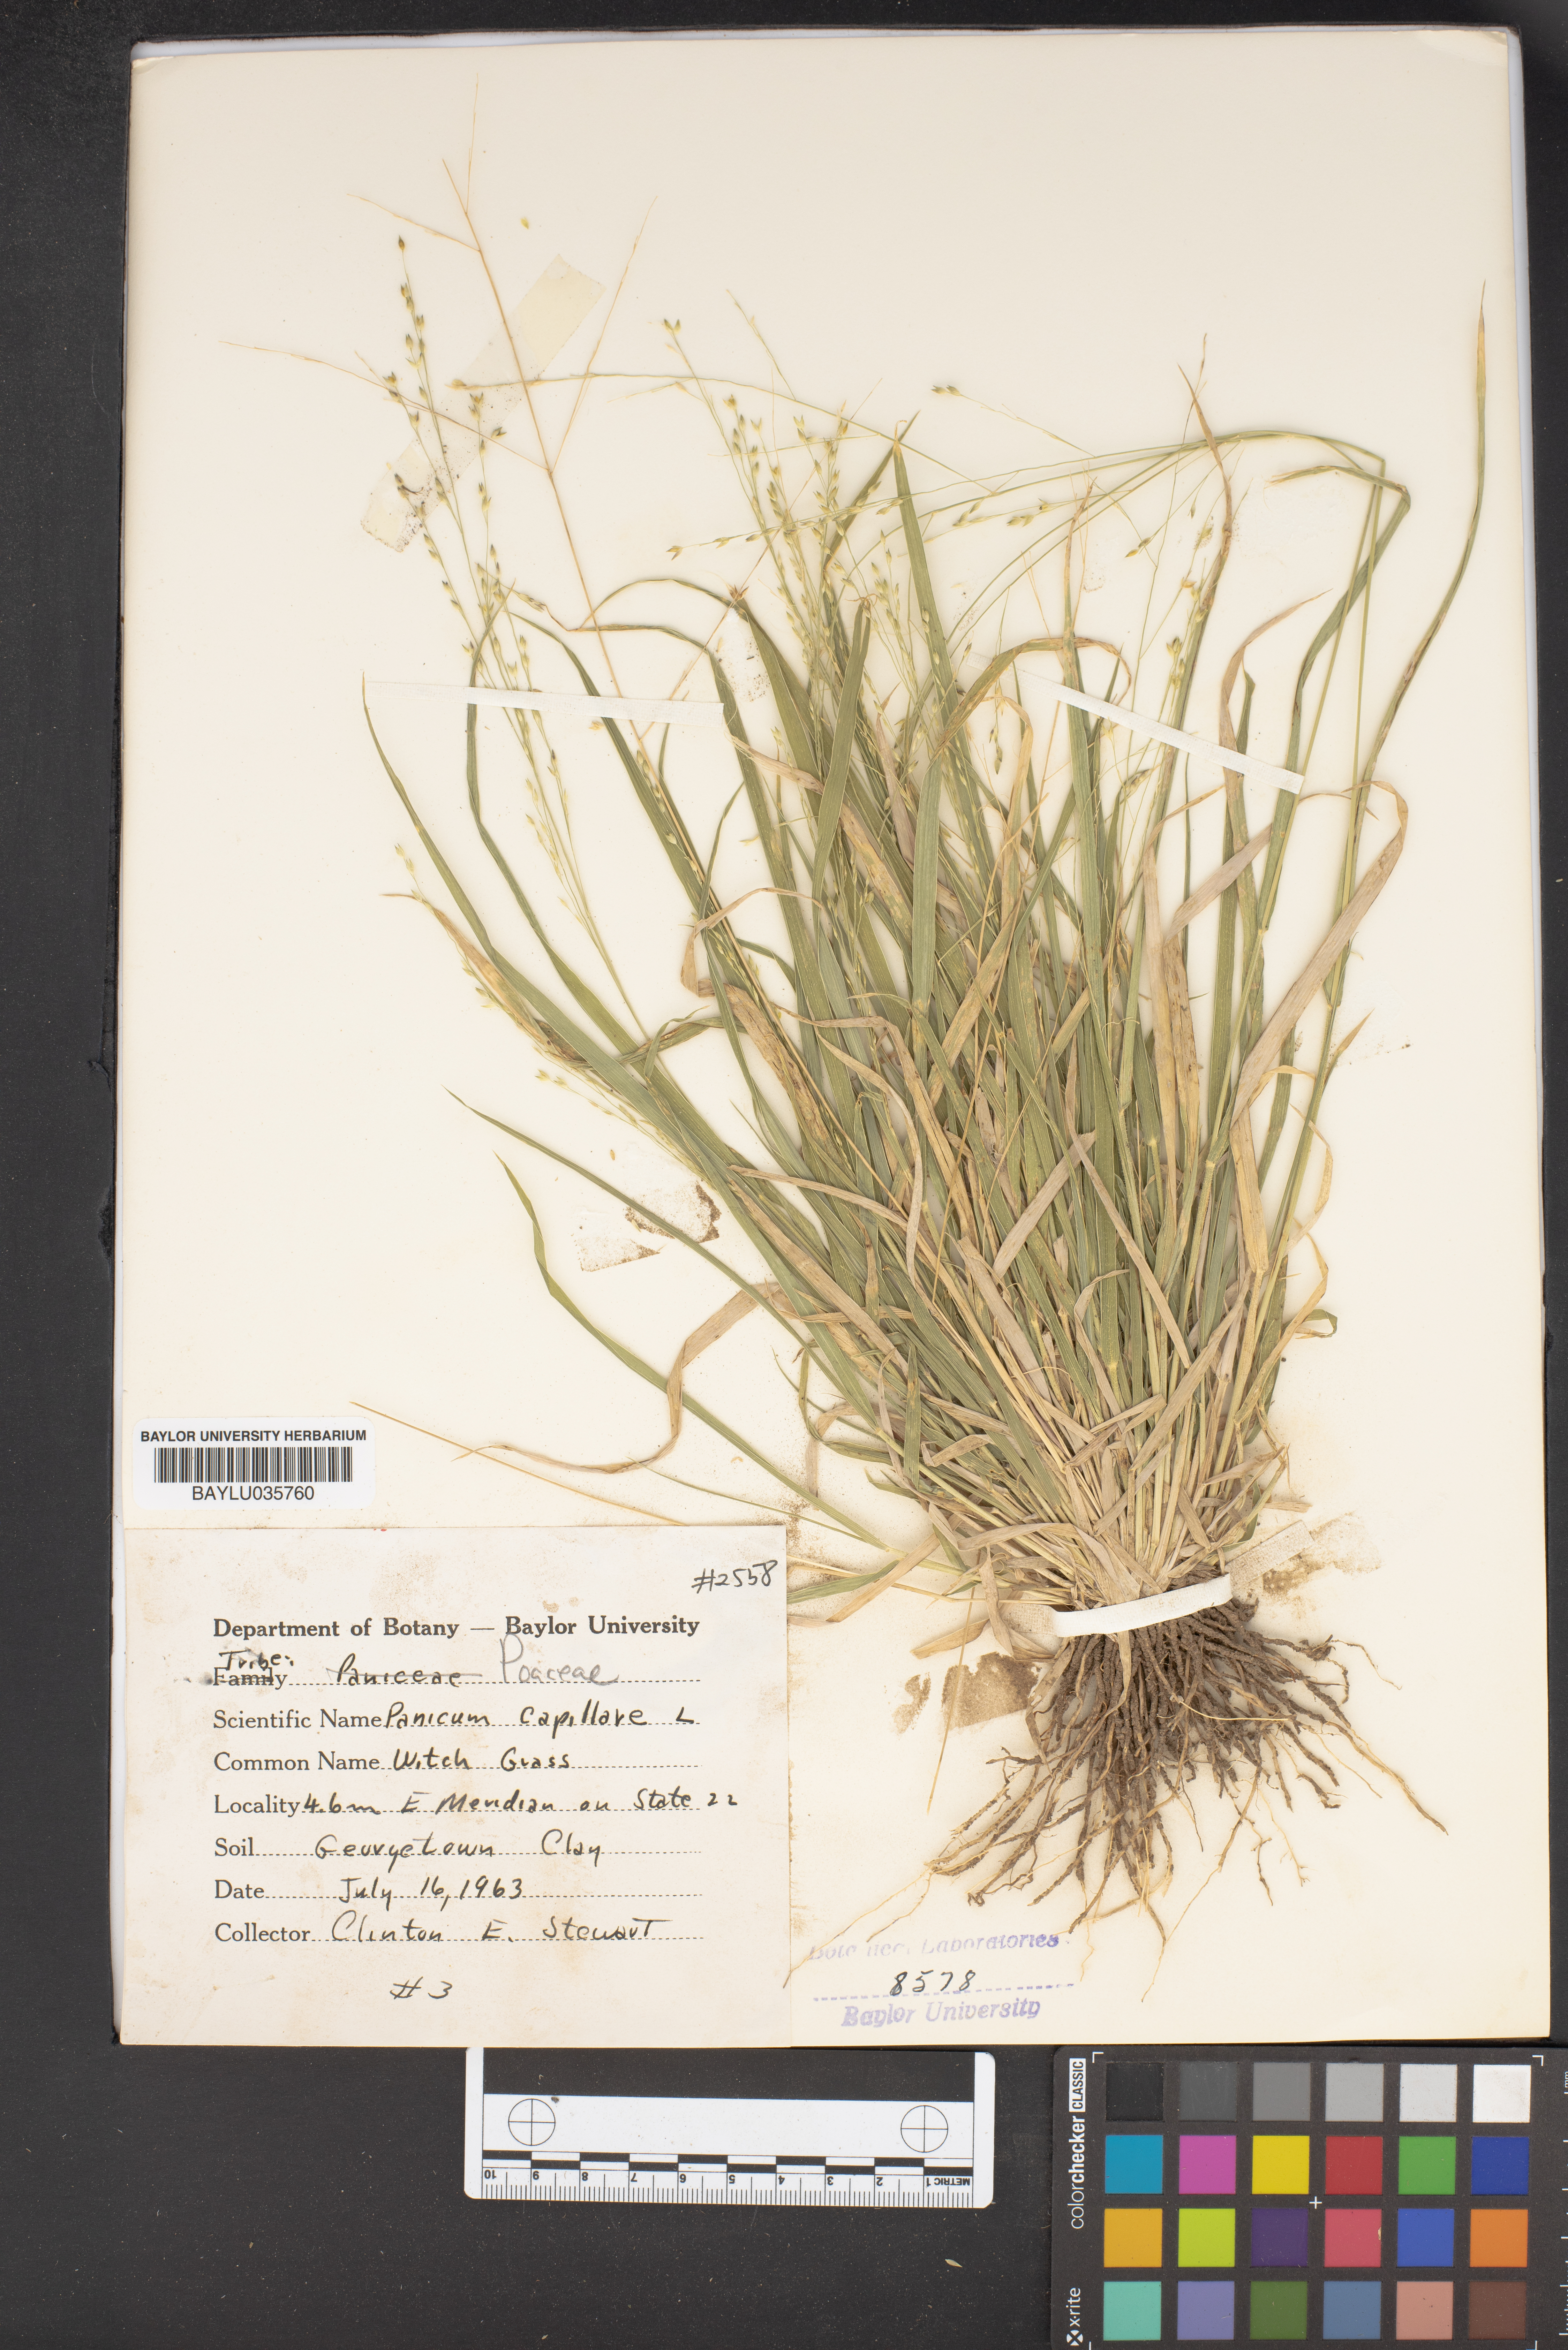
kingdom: Plantae
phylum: Tracheophyta
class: Liliopsida
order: Poales
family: Poaceae
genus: Panicum
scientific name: Panicum capillare
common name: Witch-grass
